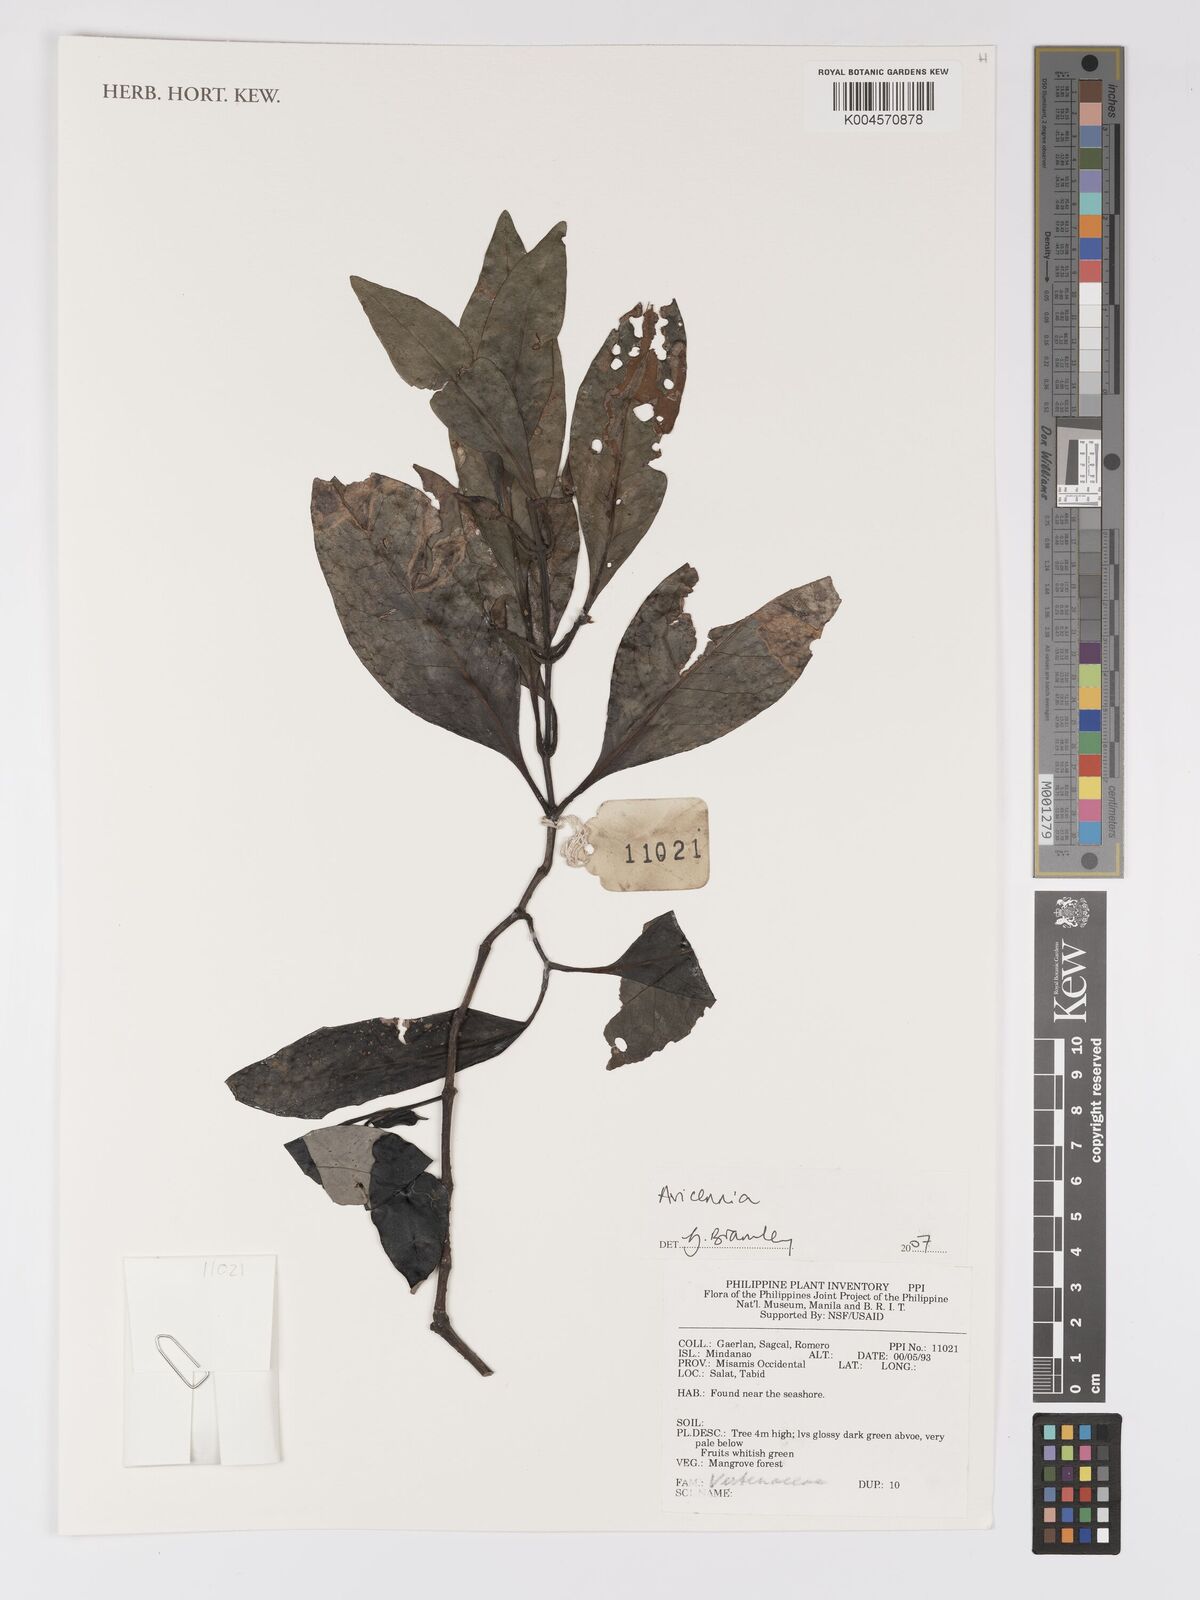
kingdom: Plantae
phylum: Tracheophyta
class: Magnoliopsida
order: Lamiales
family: Acanthaceae
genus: Avicennia
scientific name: Avicennia
